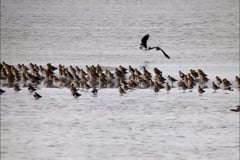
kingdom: Animalia
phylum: Chordata
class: Aves
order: Charadriiformes
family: Charadriidae
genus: Pluvialis
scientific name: Pluvialis apricaria
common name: European golden plover
